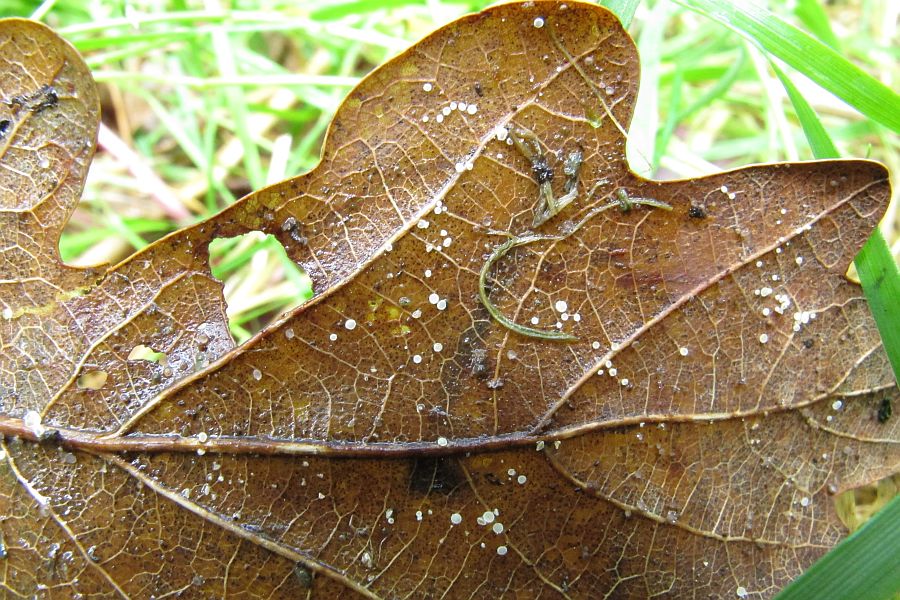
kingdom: Fungi
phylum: Ascomycota
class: Leotiomycetes
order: Helotiales
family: Lachnaceae
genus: Lachnum
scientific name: Lachnum rhytismatis
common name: blad-frynseskive
